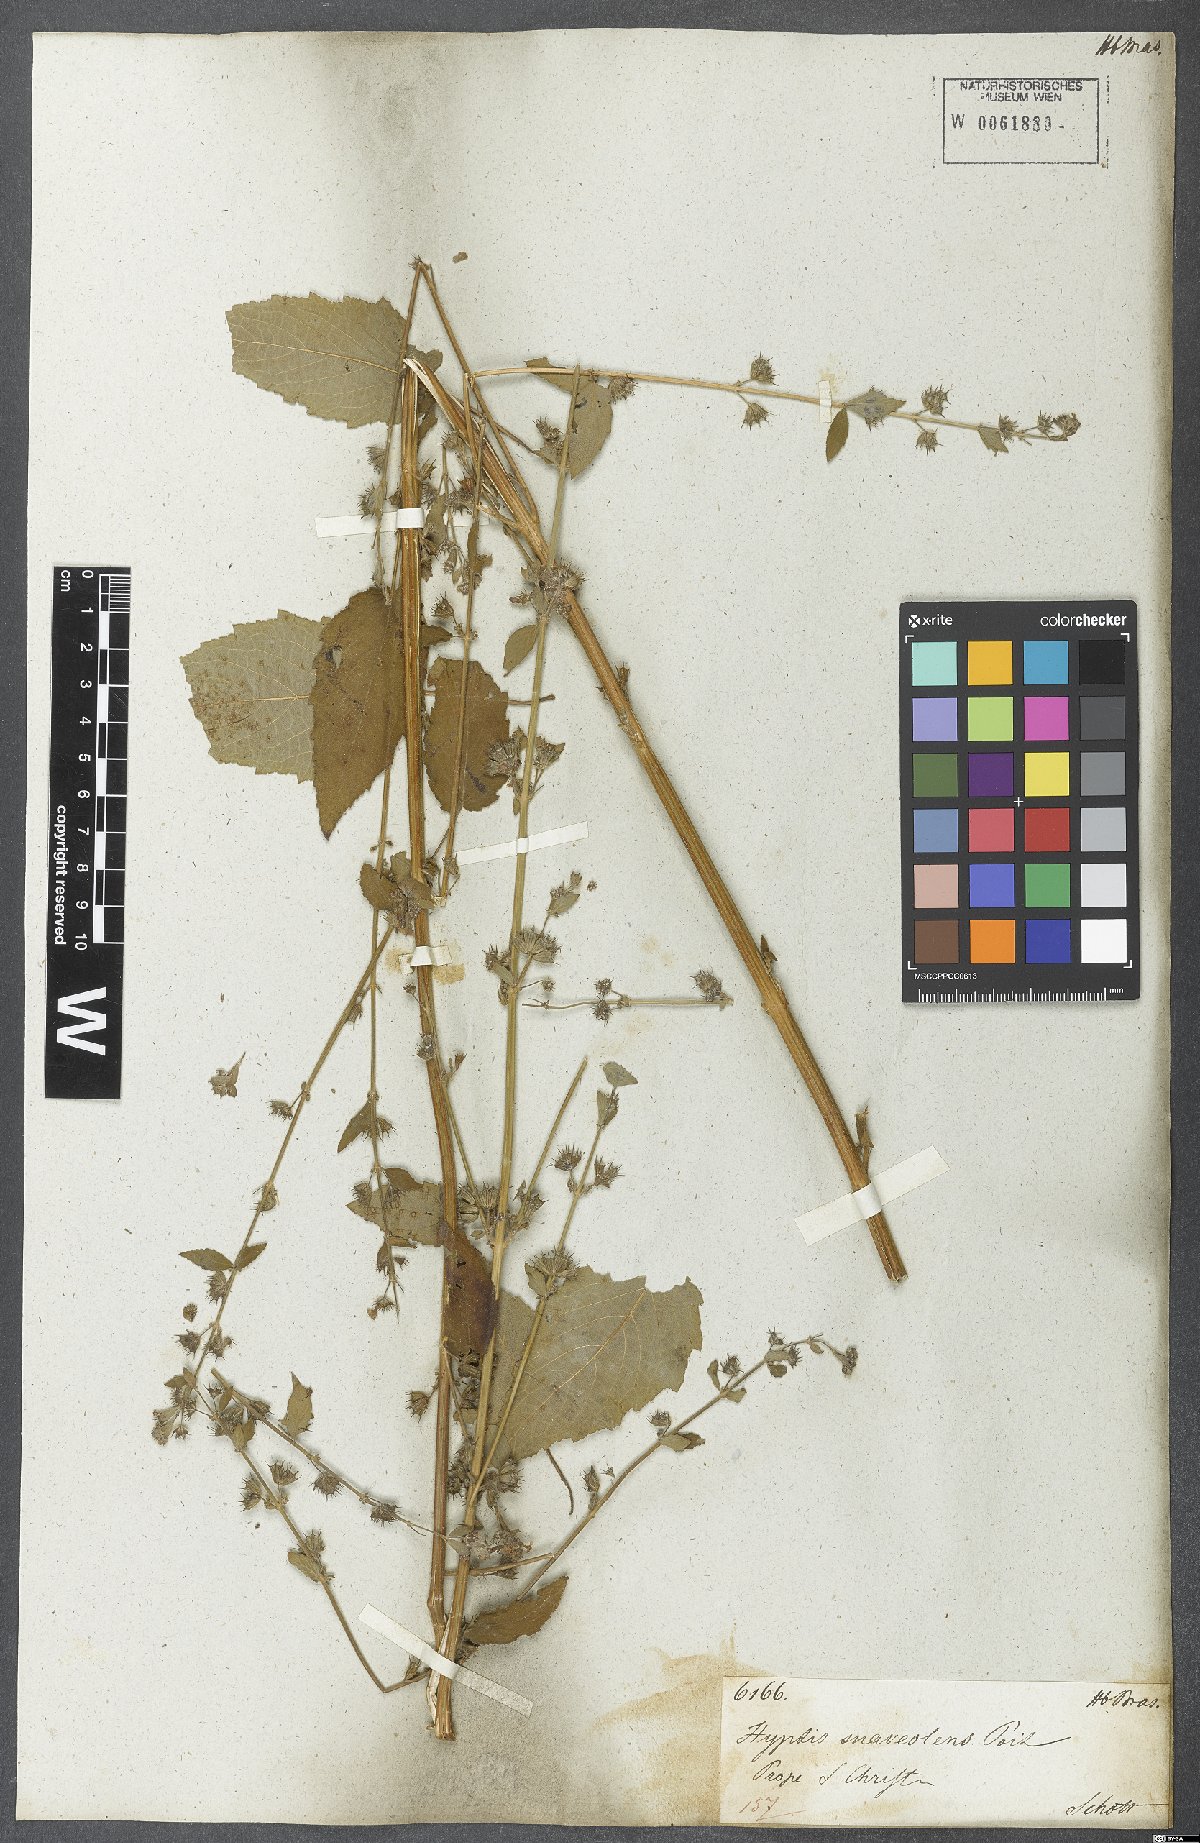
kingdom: Plantae
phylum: Tracheophyta
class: Magnoliopsida
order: Lamiales
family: Lamiaceae
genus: Mesosphaerum
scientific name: Mesosphaerum suaveolens
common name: Pignut
